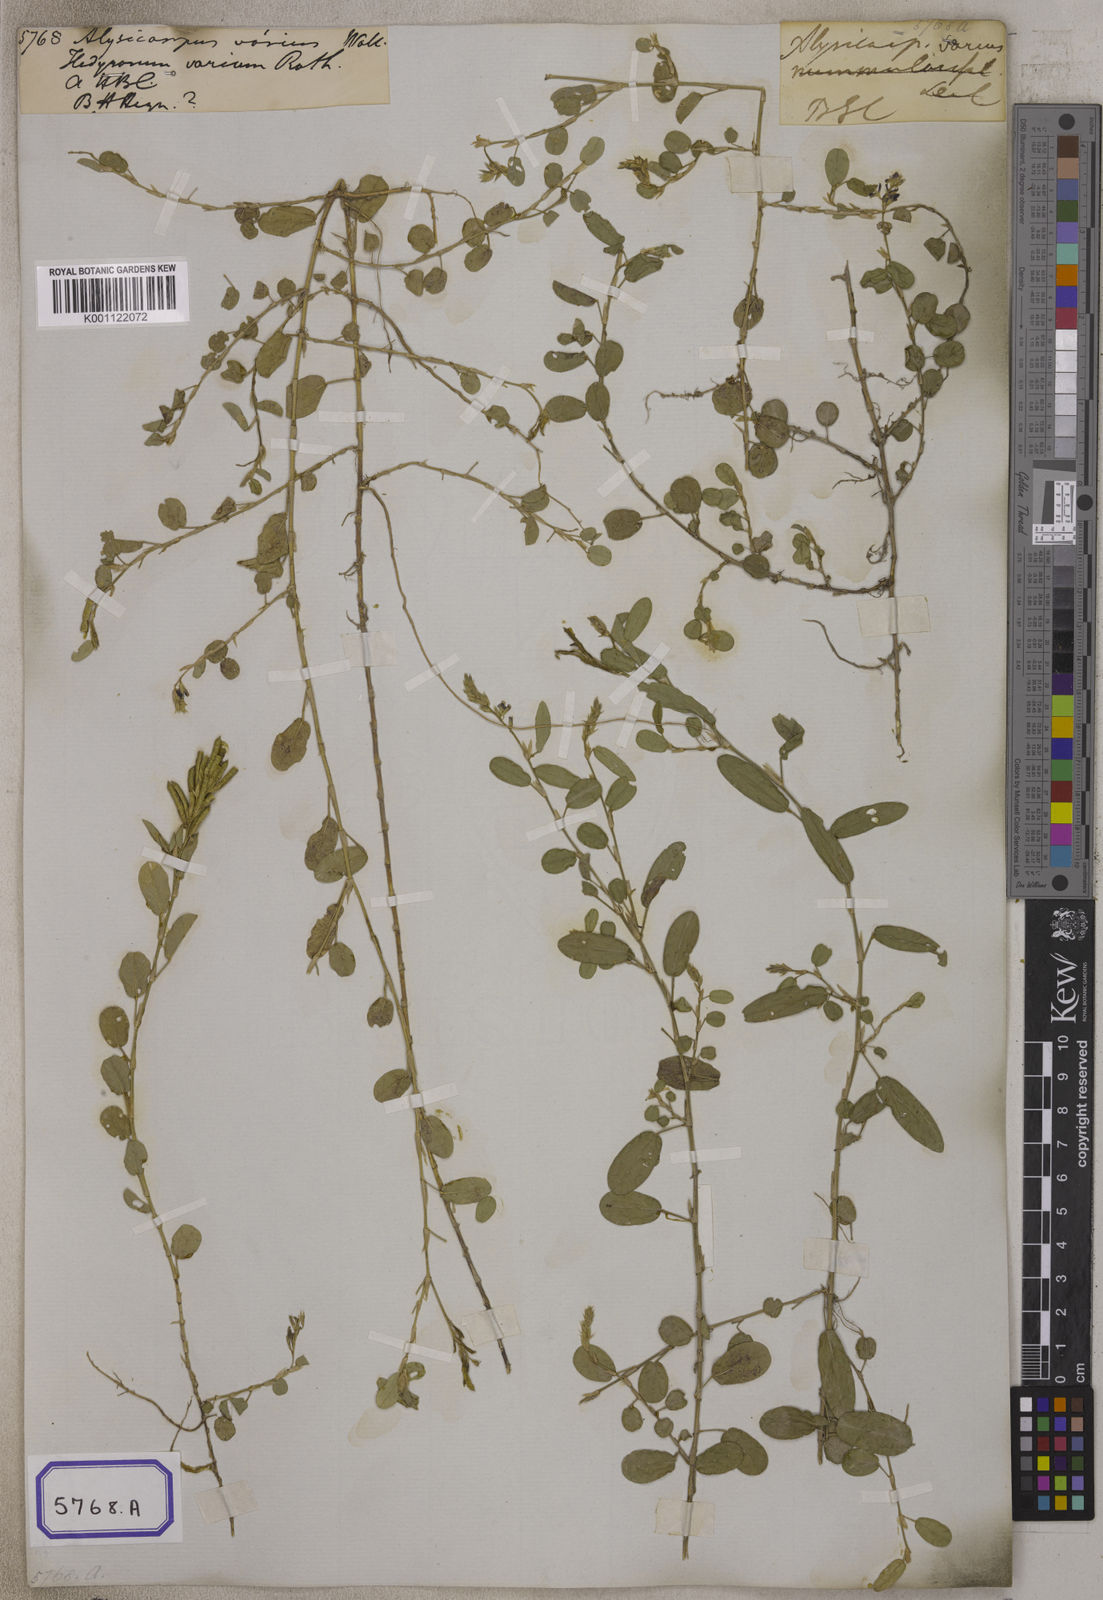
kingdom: Plantae
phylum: Tracheophyta
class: Magnoliopsida
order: Fabales
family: Fabaceae
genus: Alysicarpus
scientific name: Alysicarpus vaginalis
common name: White moneywort
